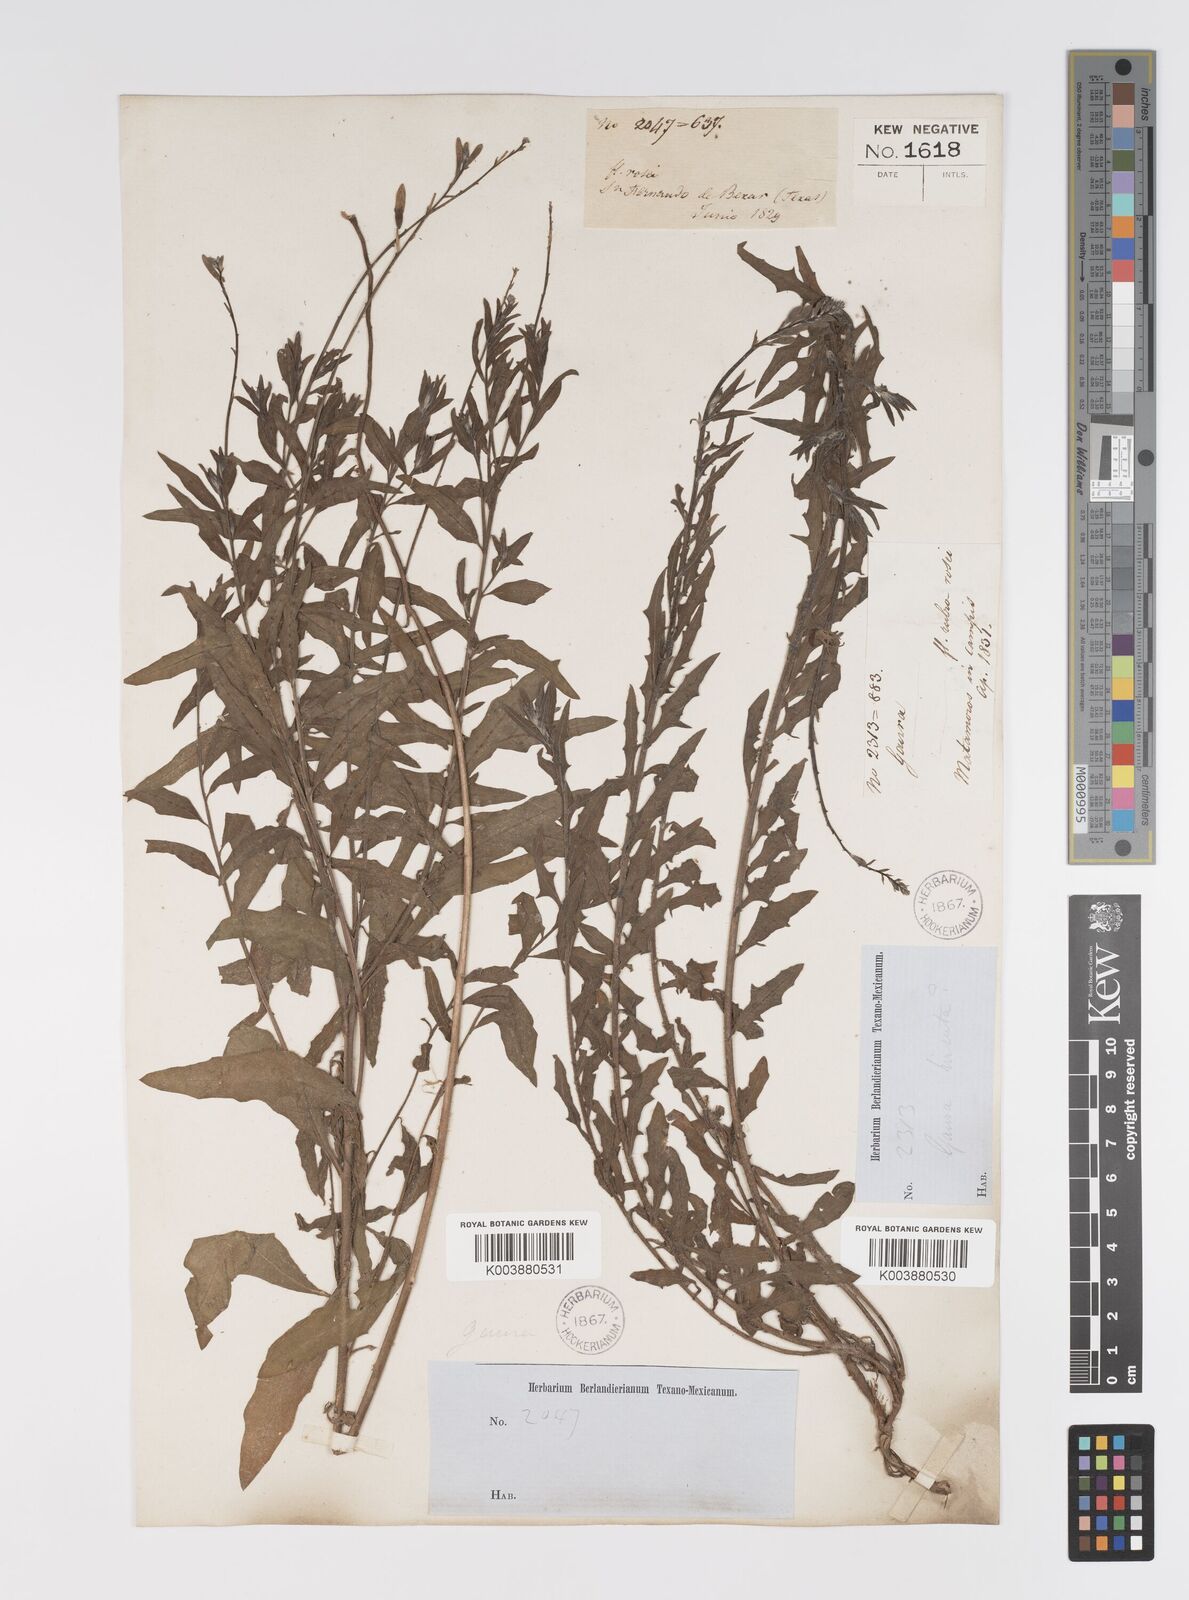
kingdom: Plantae
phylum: Tracheophyta
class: Magnoliopsida
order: Myrtales
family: Onagraceae
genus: Oenothera
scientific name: Oenothera hispida
